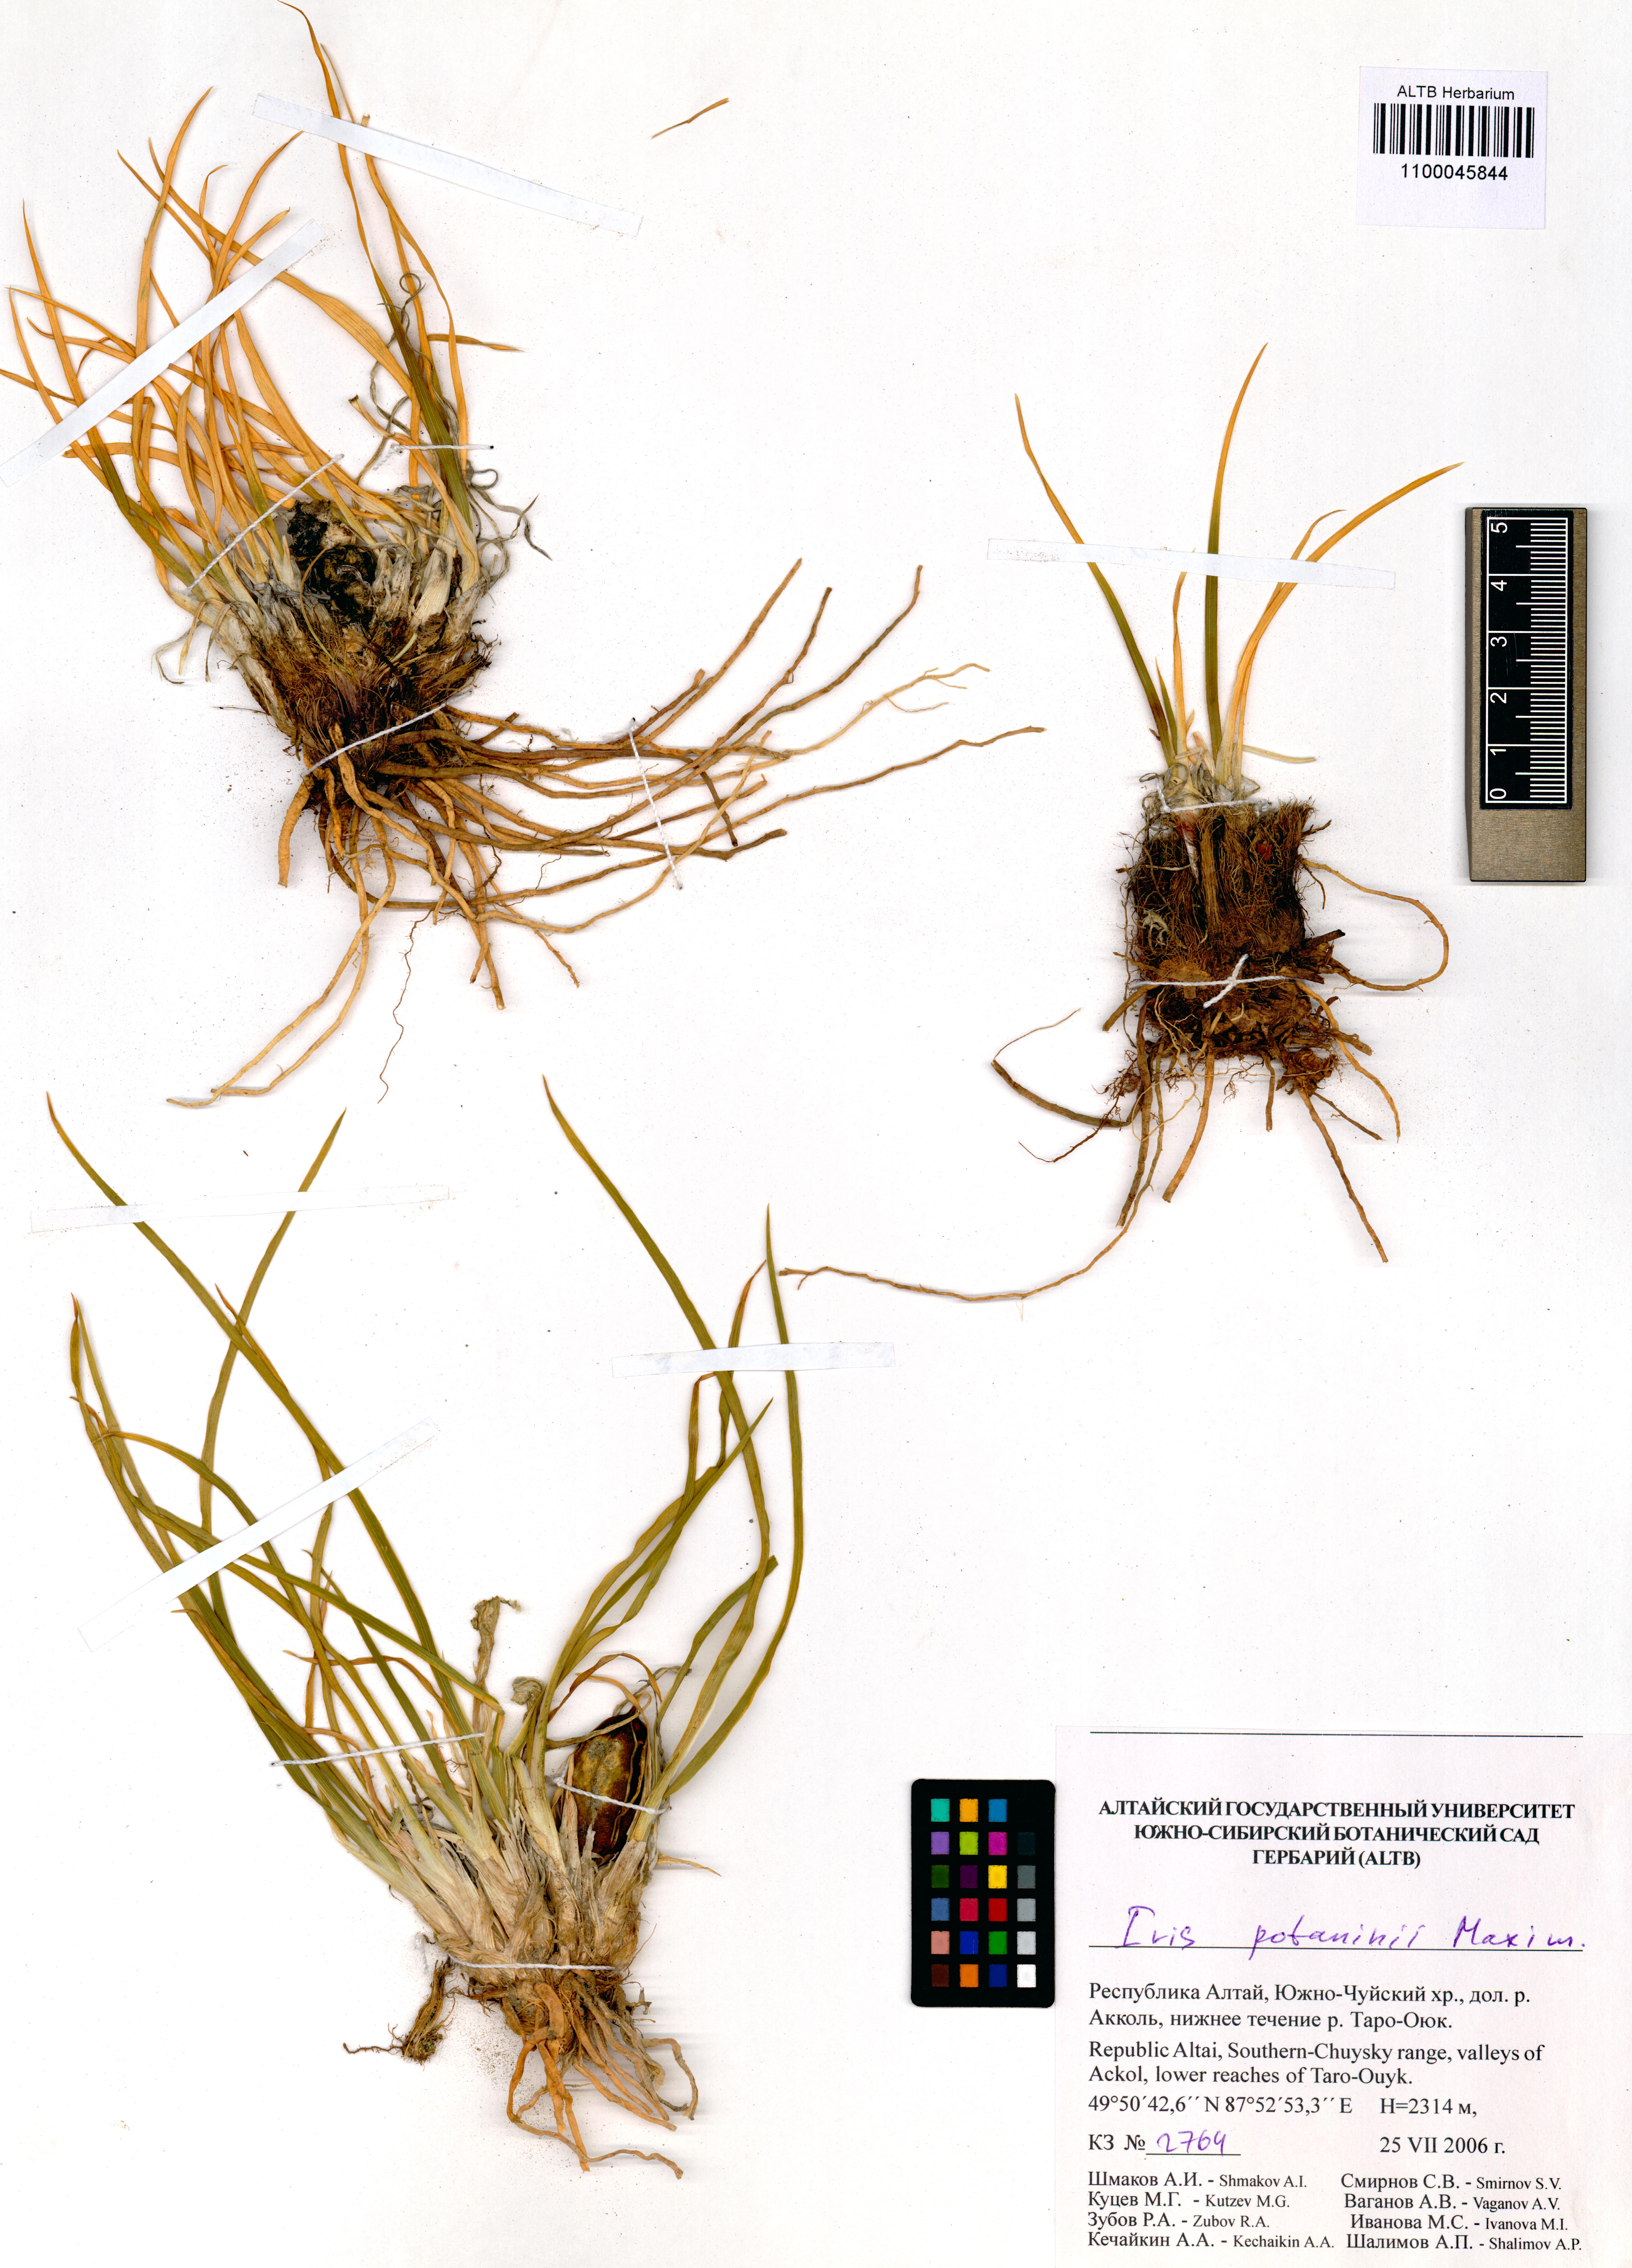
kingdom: Plantae
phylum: Tracheophyta
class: Liliopsida
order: Asparagales
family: Iridaceae
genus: Iris
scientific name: Iris potaninii
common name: Curl-sheath iris
